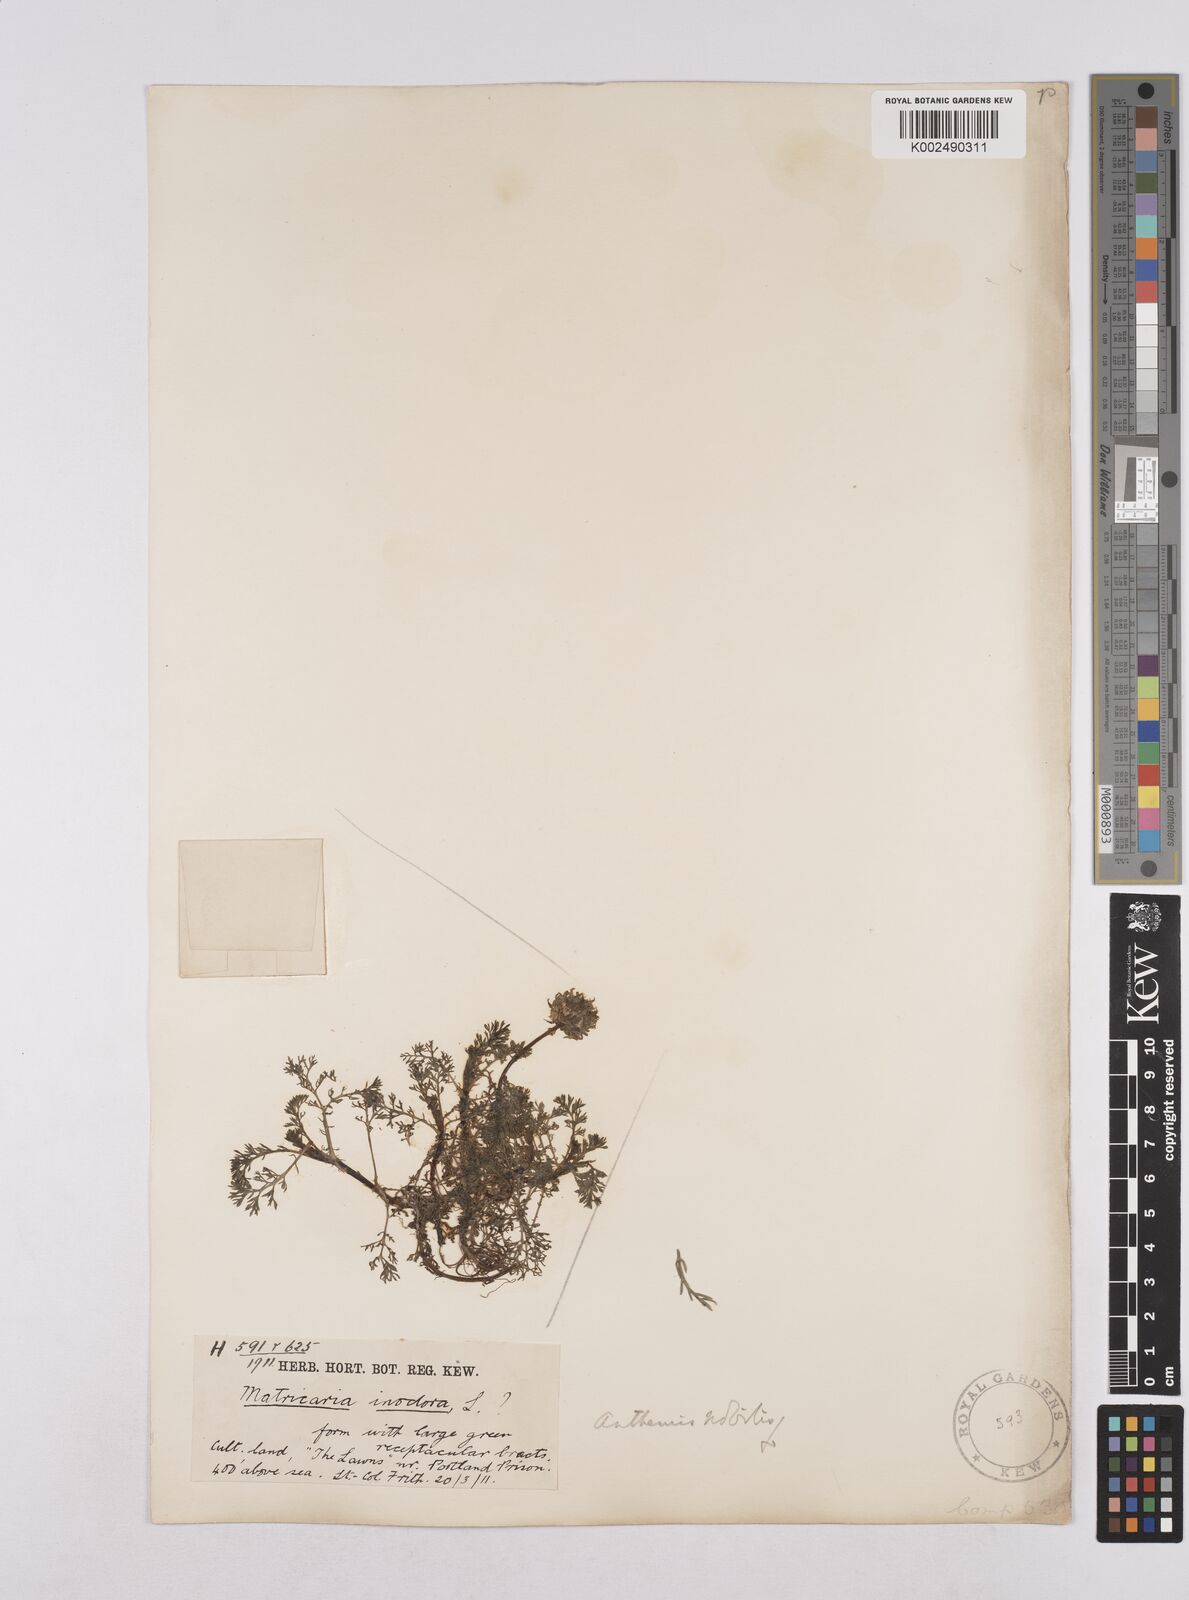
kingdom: Plantae
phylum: Tracheophyta
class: Magnoliopsida
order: Asterales
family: Asteraceae
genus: Chamaemelum
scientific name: Chamaemelum nobile
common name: Roman chamomile
